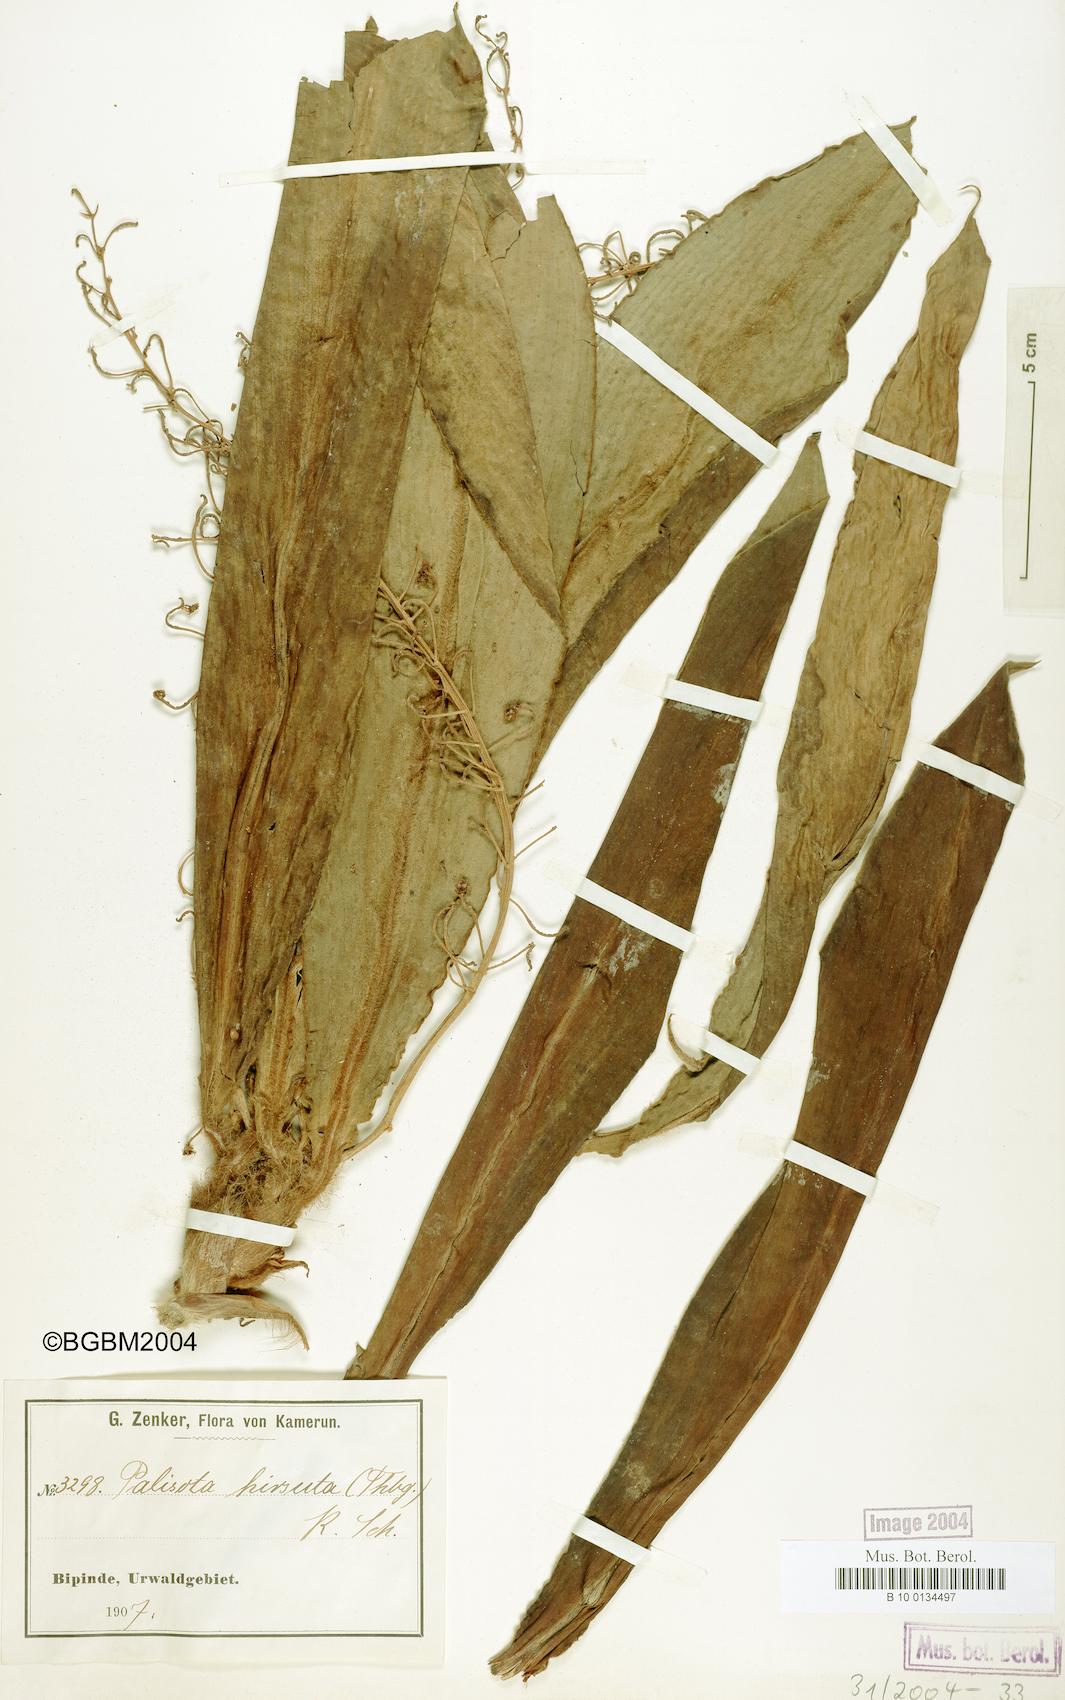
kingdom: Plantae
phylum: Tracheophyta
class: Liliopsida
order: Commelinales
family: Commelinaceae
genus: Palisota
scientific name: Palisota hirsuta
